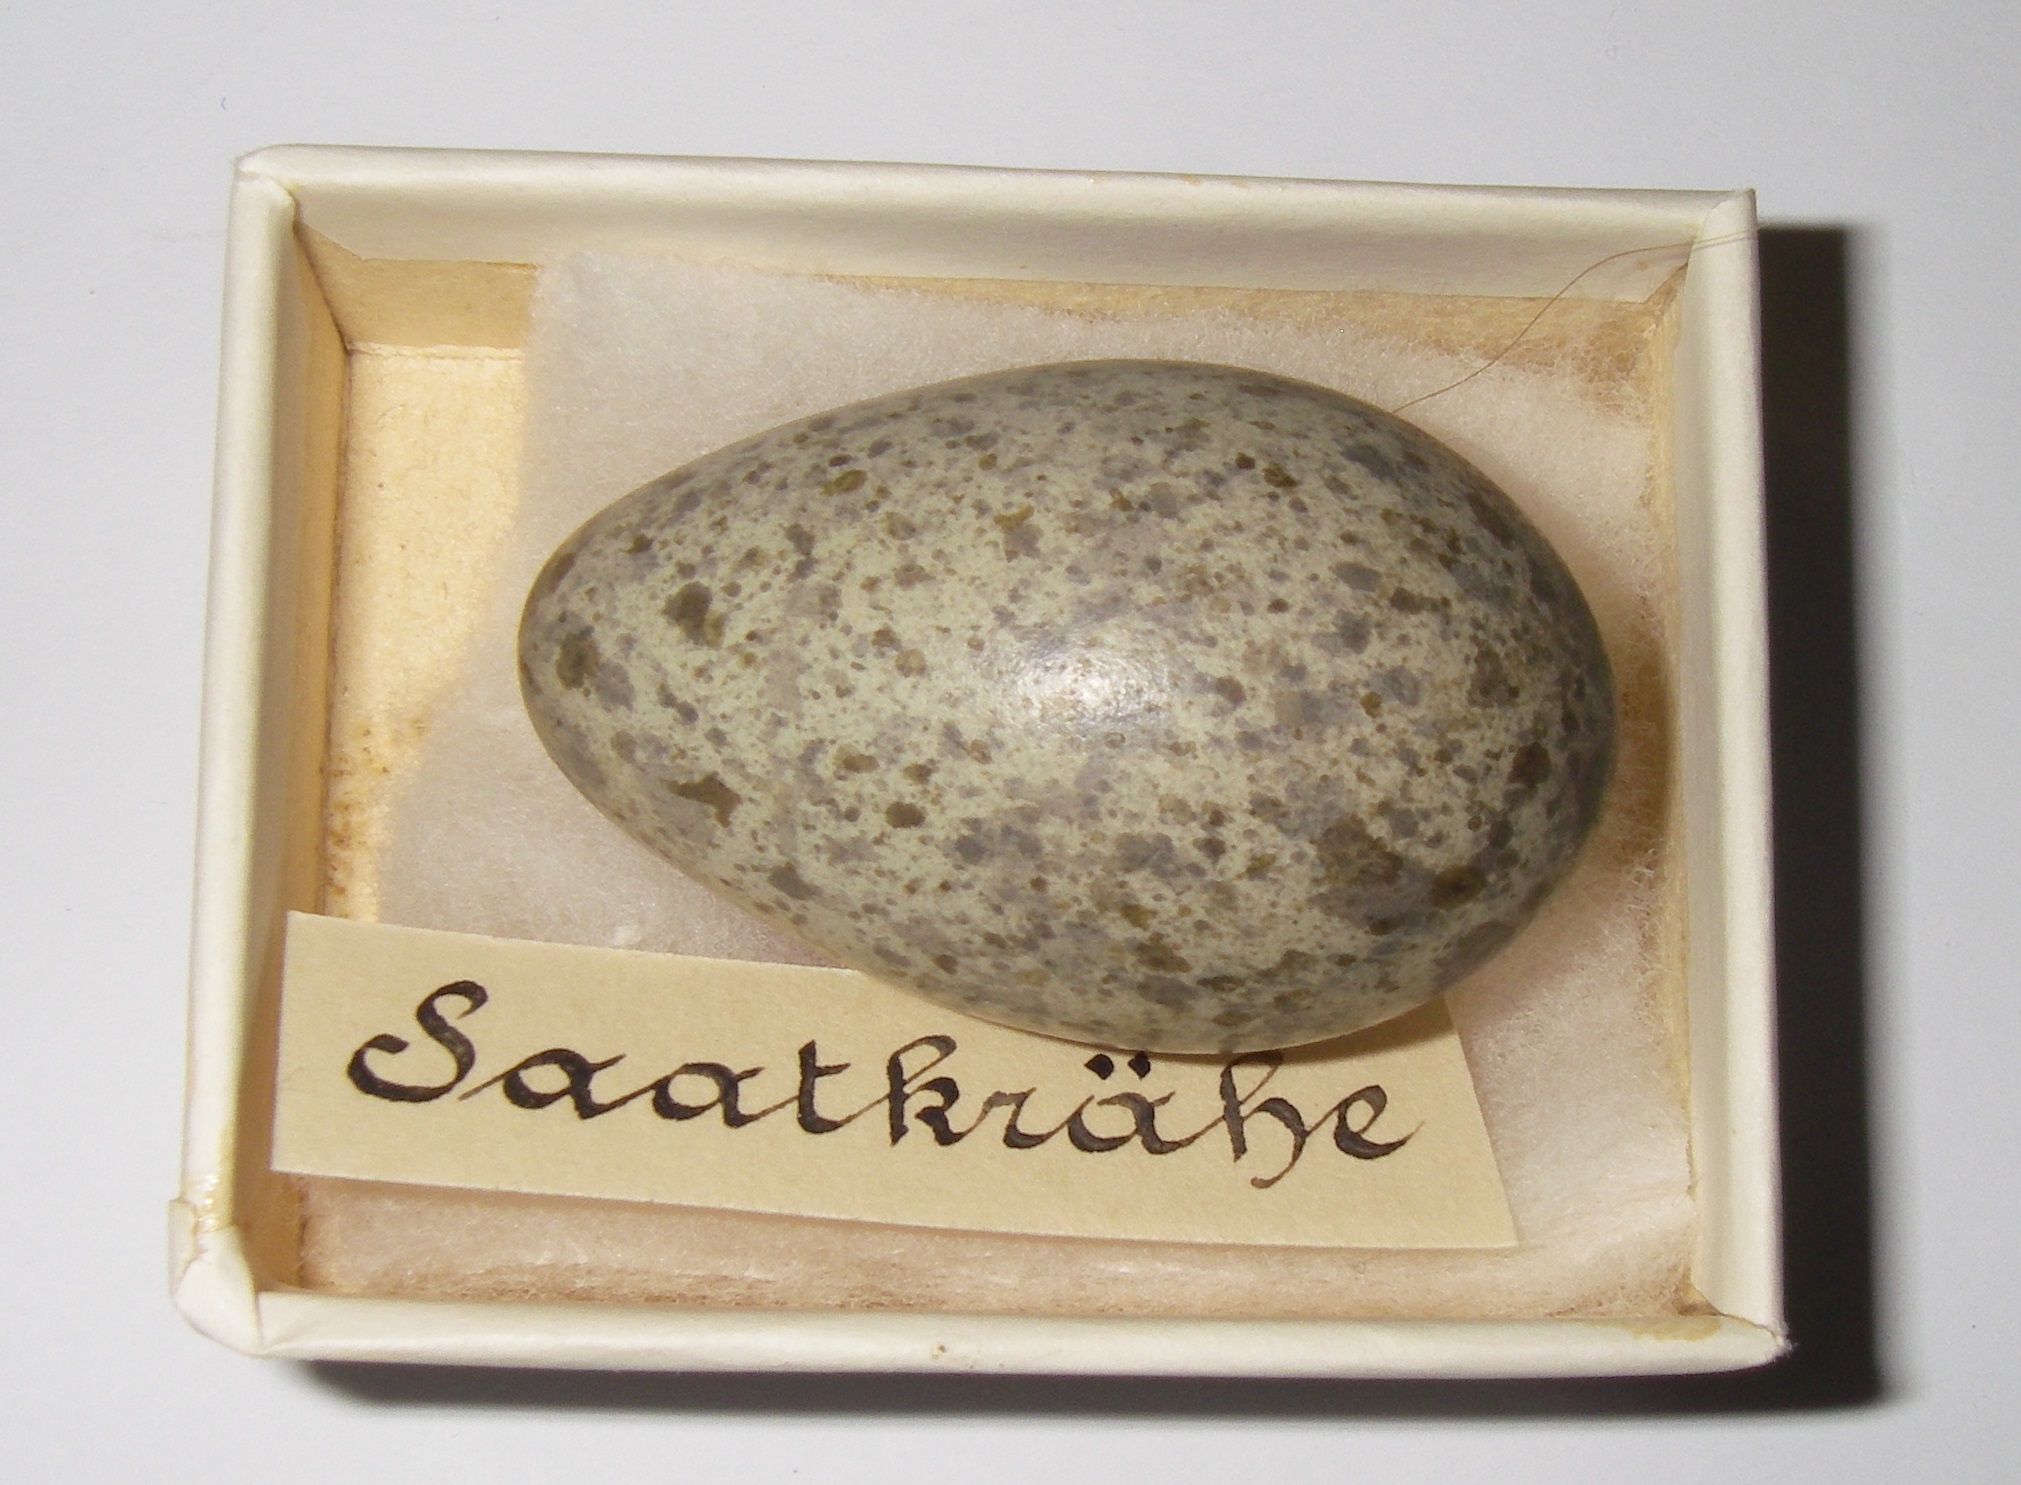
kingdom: Animalia
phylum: Chordata
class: Aves
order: Passeriformes
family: Corvidae
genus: Corvus
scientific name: Corvus frugilegus
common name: Rook
